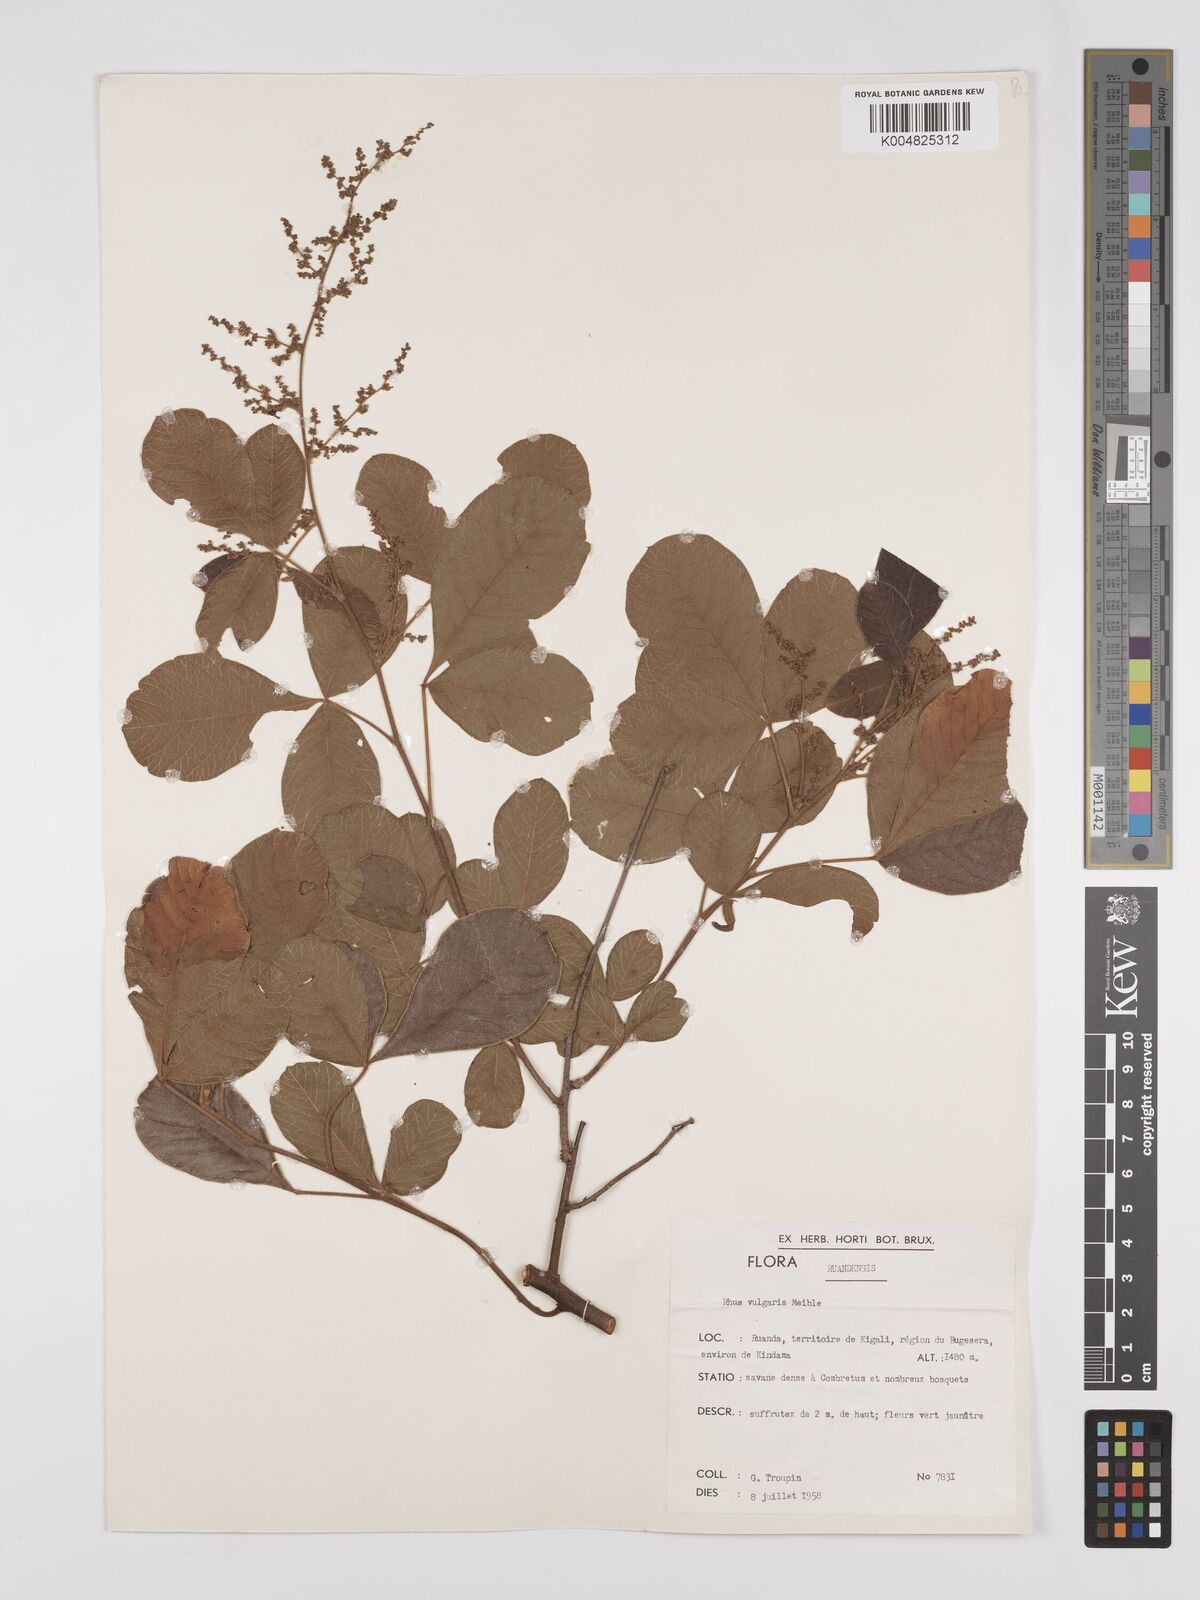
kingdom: Plantae
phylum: Tracheophyta
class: Magnoliopsida
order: Sapindales
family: Anacardiaceae
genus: Searsia
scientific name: Searsia pyroides
